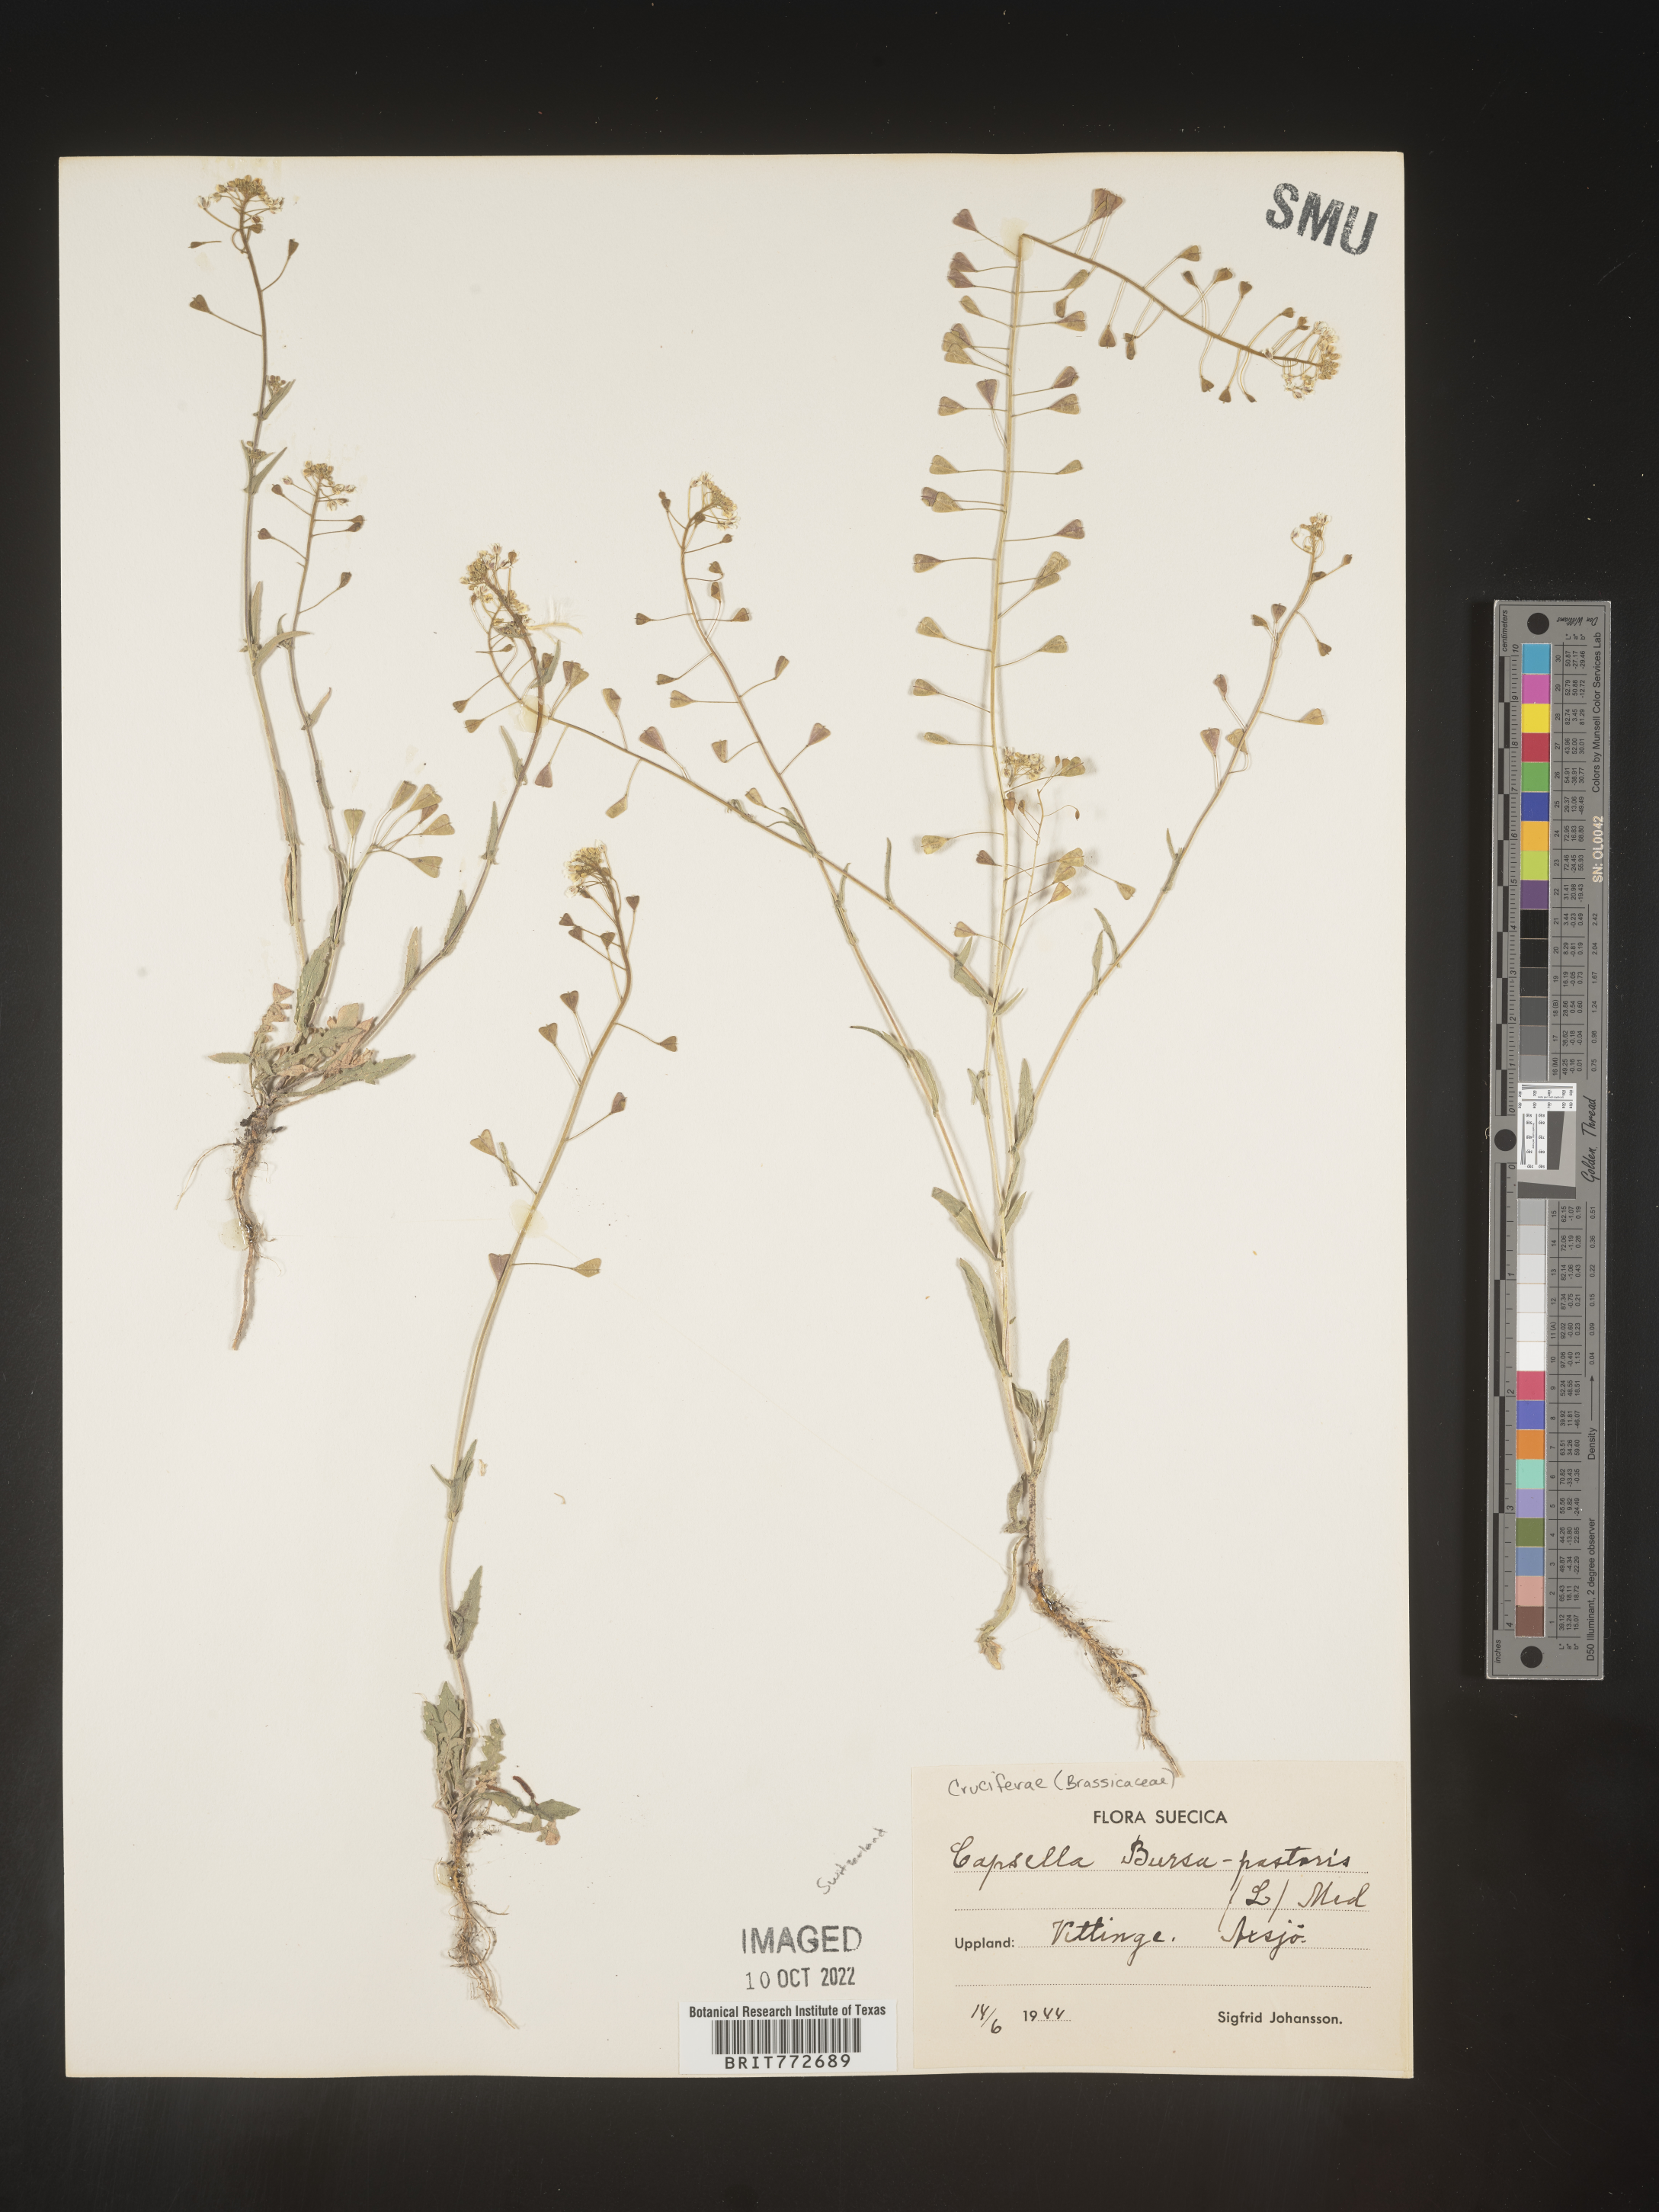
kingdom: Plantae
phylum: Tracheophyta
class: Magnoliopsida
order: Brassicales
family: Brassicaceae
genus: Capsella
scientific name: Capsella
